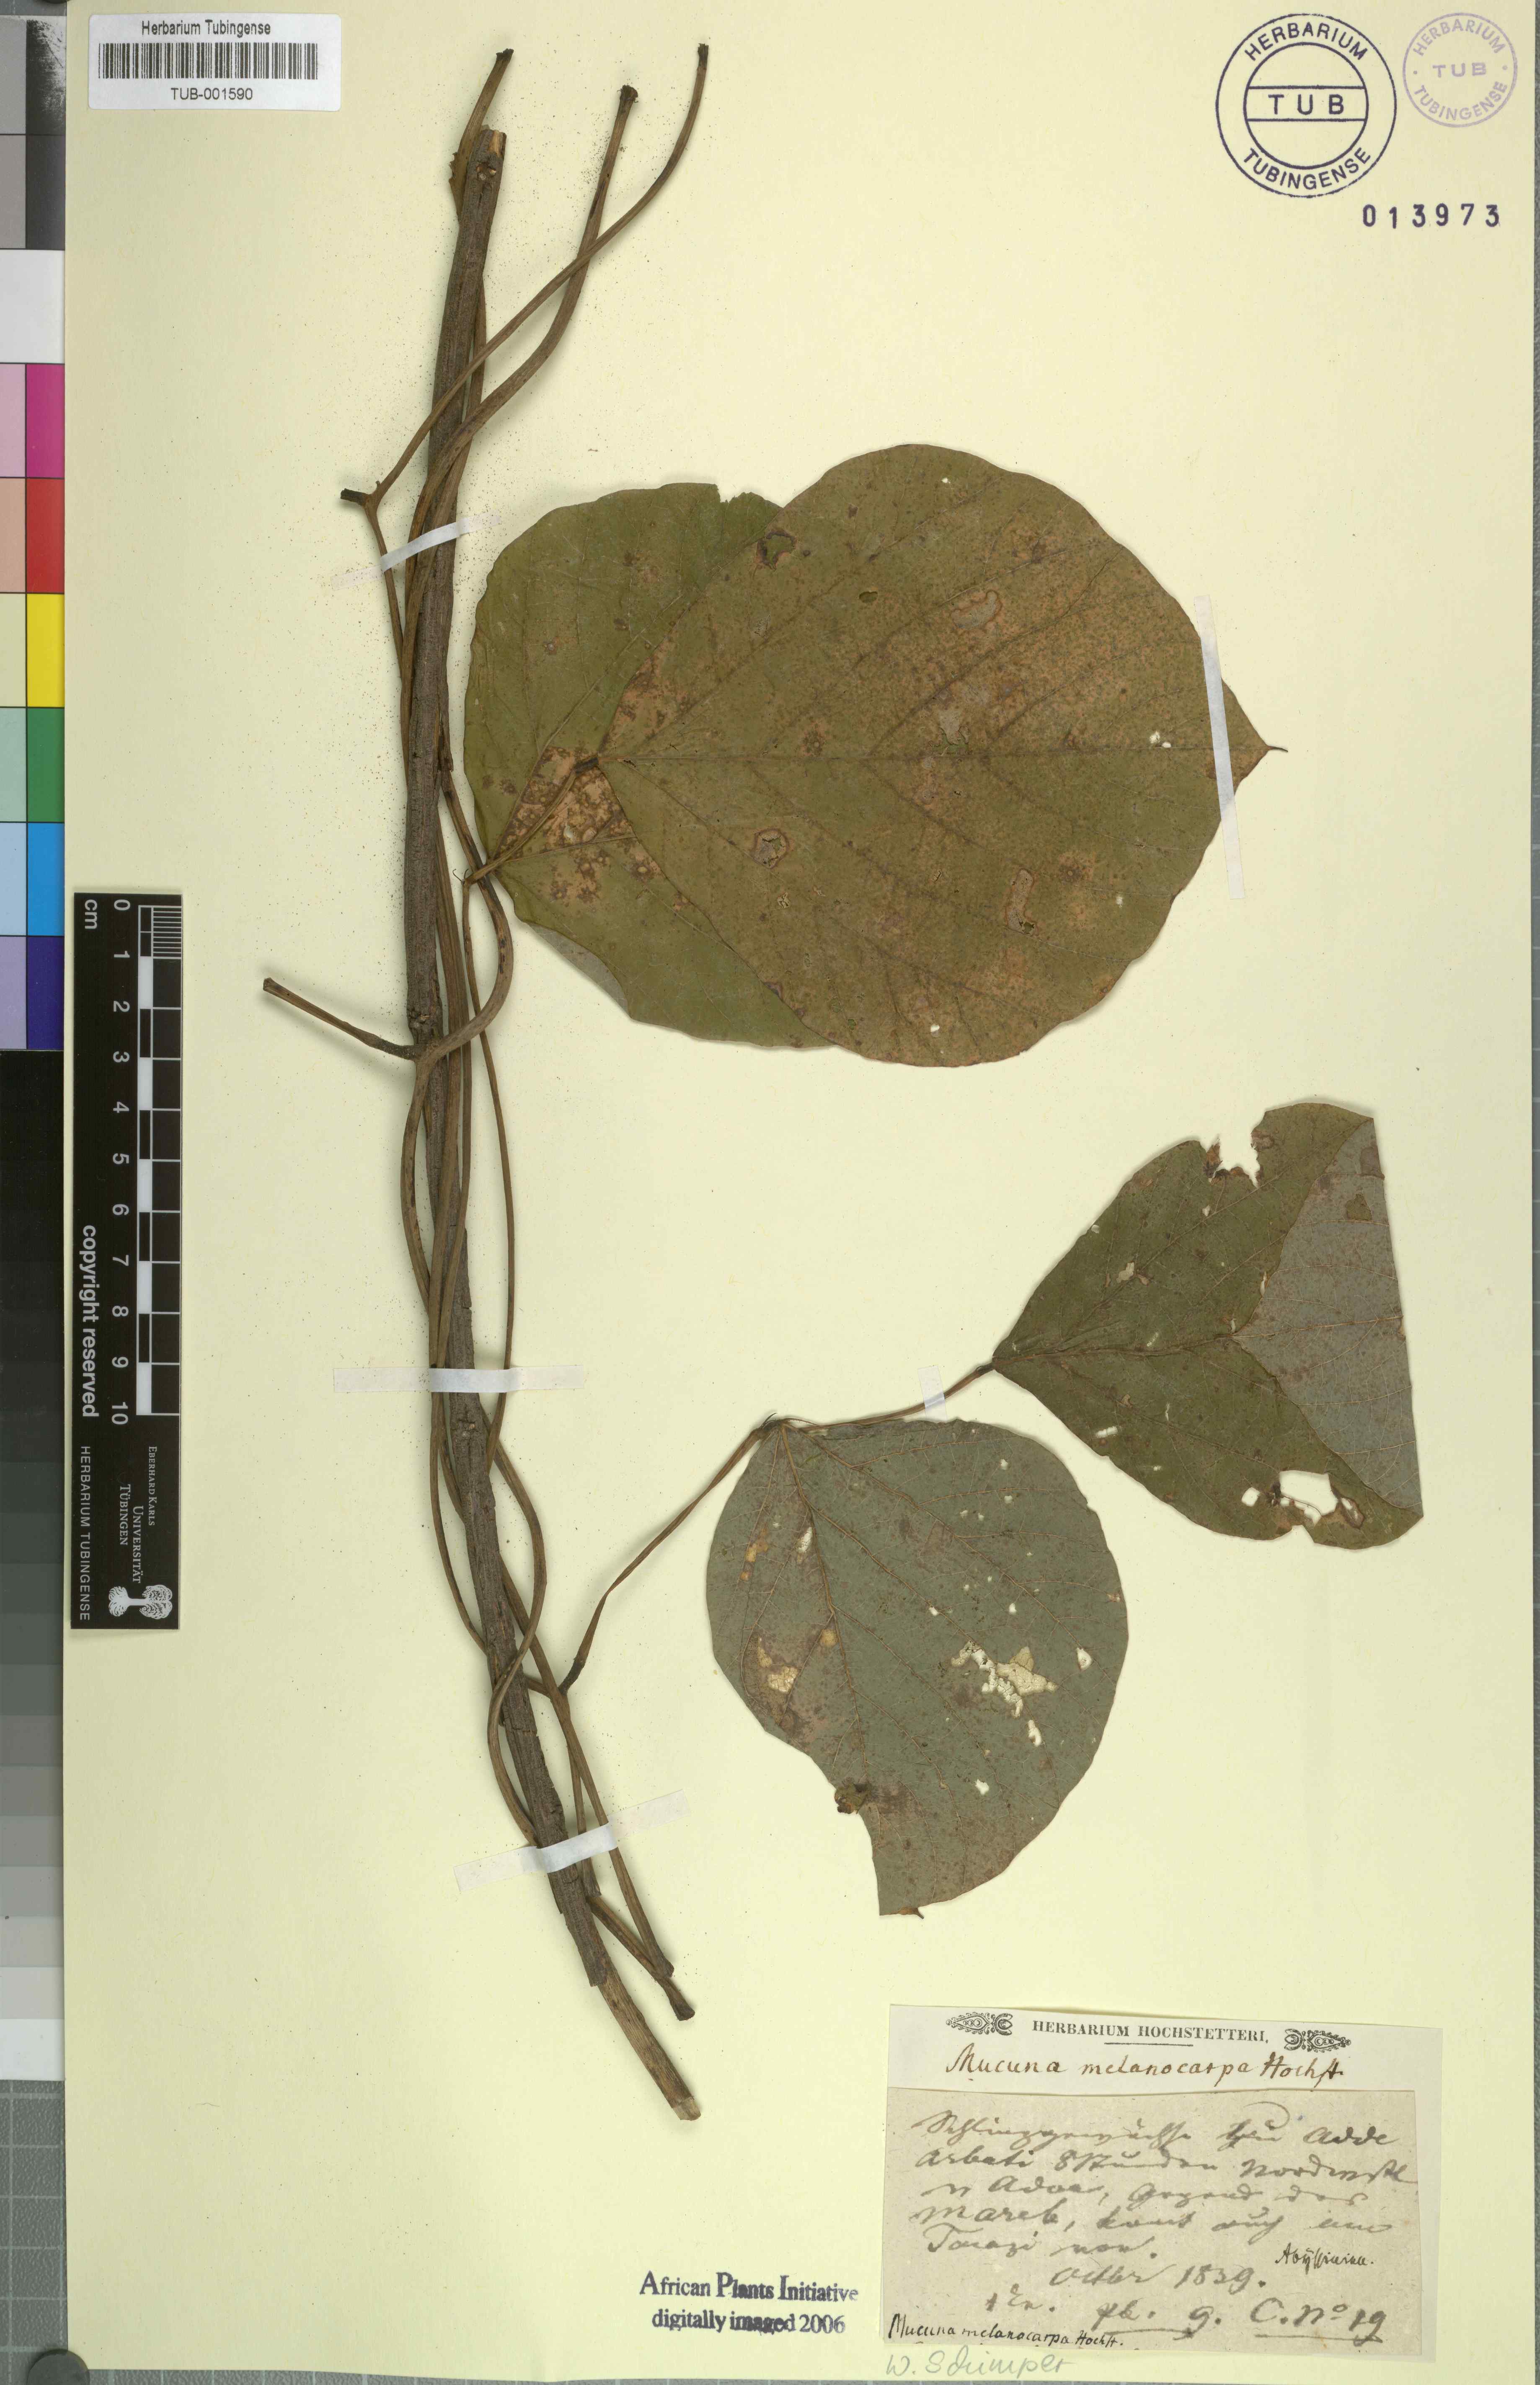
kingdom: Plantae
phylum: Tracheophyta
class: Magnoliopsida
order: Fabales
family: Fabaceae
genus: Mucuna
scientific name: Mucuna melanocarpa
